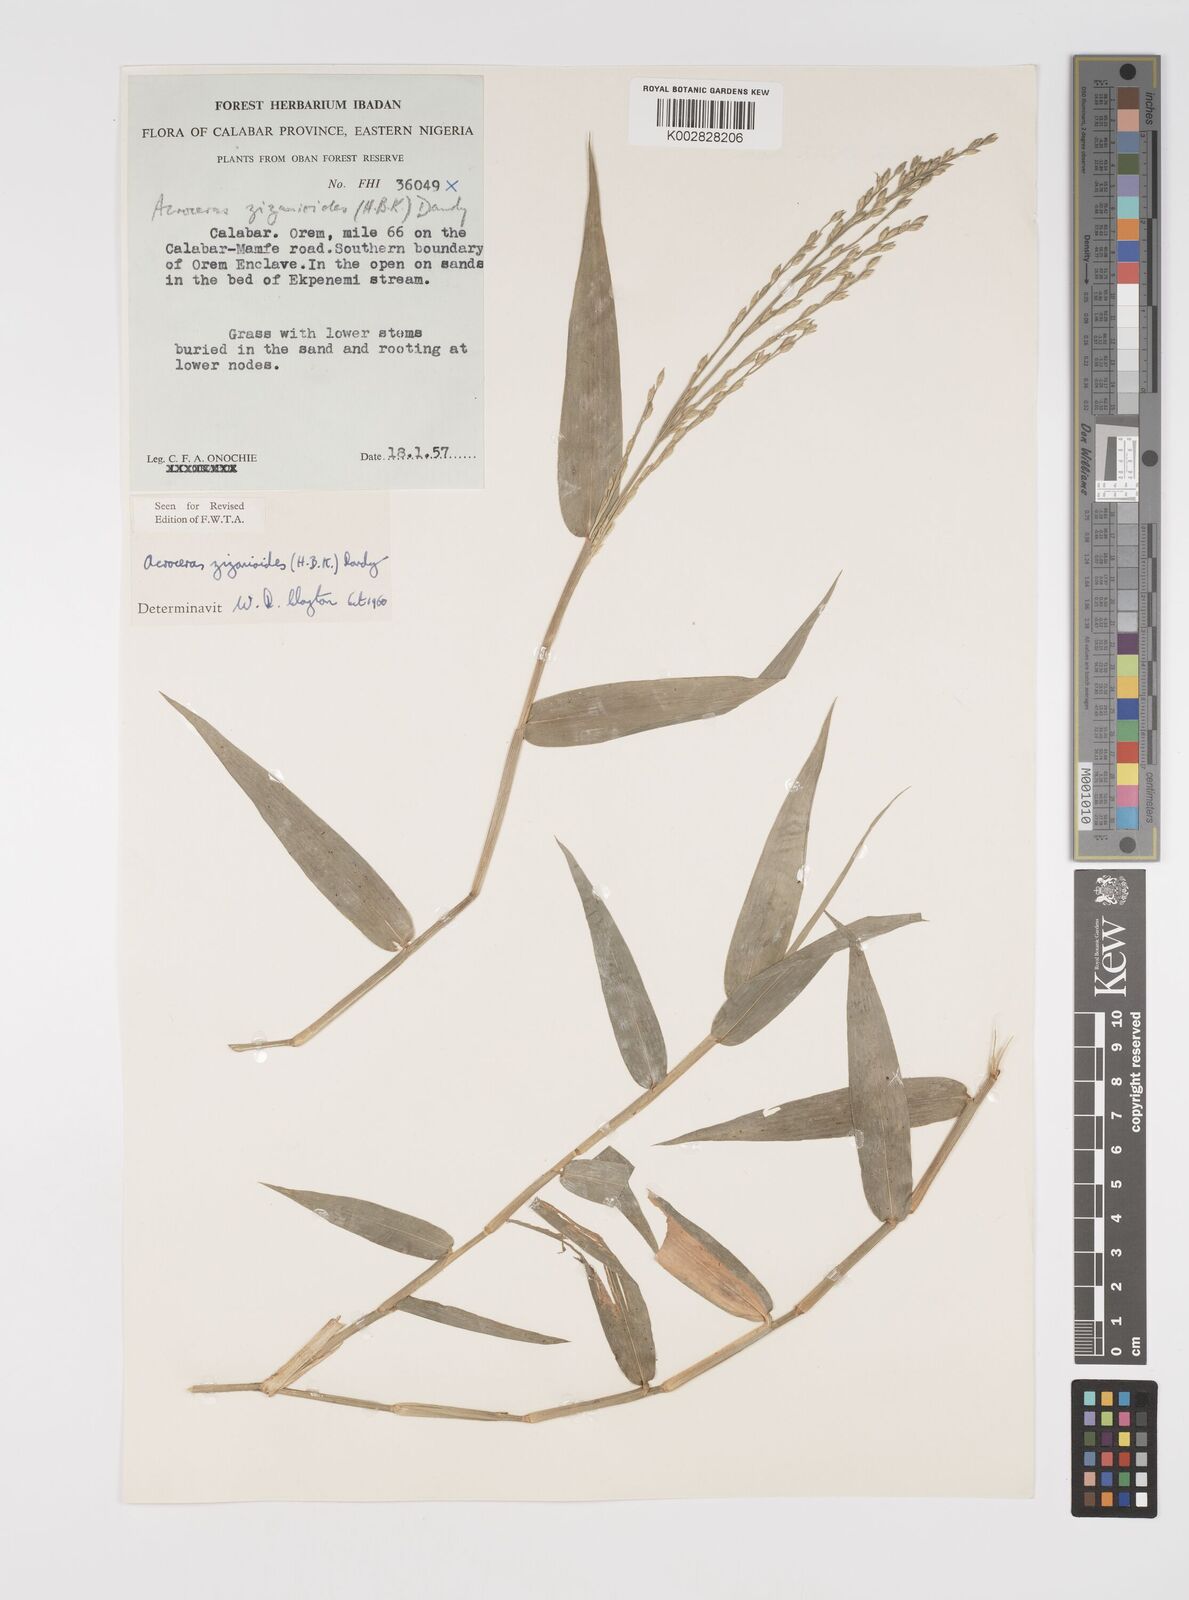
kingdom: Plantae
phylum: Tracheophyta
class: Liliopsida
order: Poales
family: Poaceae
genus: Acroceras
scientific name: Acroceras zizanioides
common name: Oat grass
